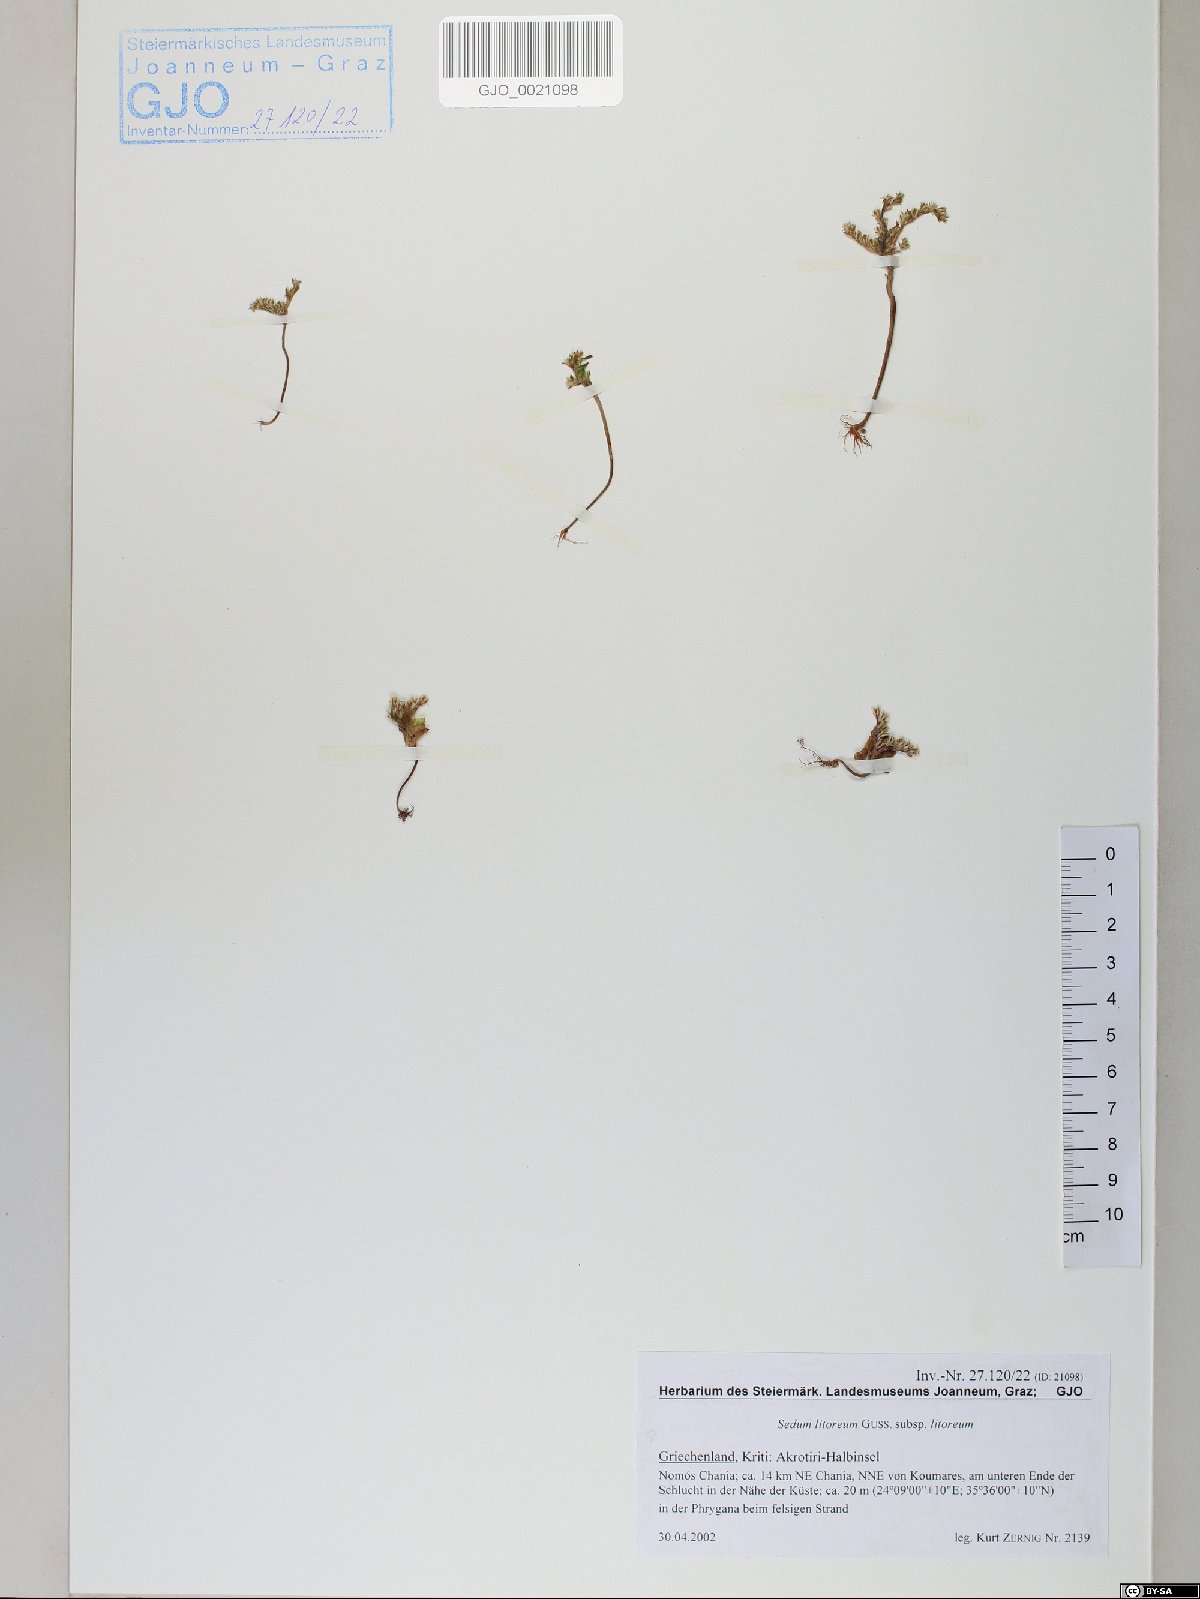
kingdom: Plantae
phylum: Tracheophyta
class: Magnoliopsida
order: Saxifragales
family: Crassulaceae
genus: Sedum
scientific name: Sedum litoreum
